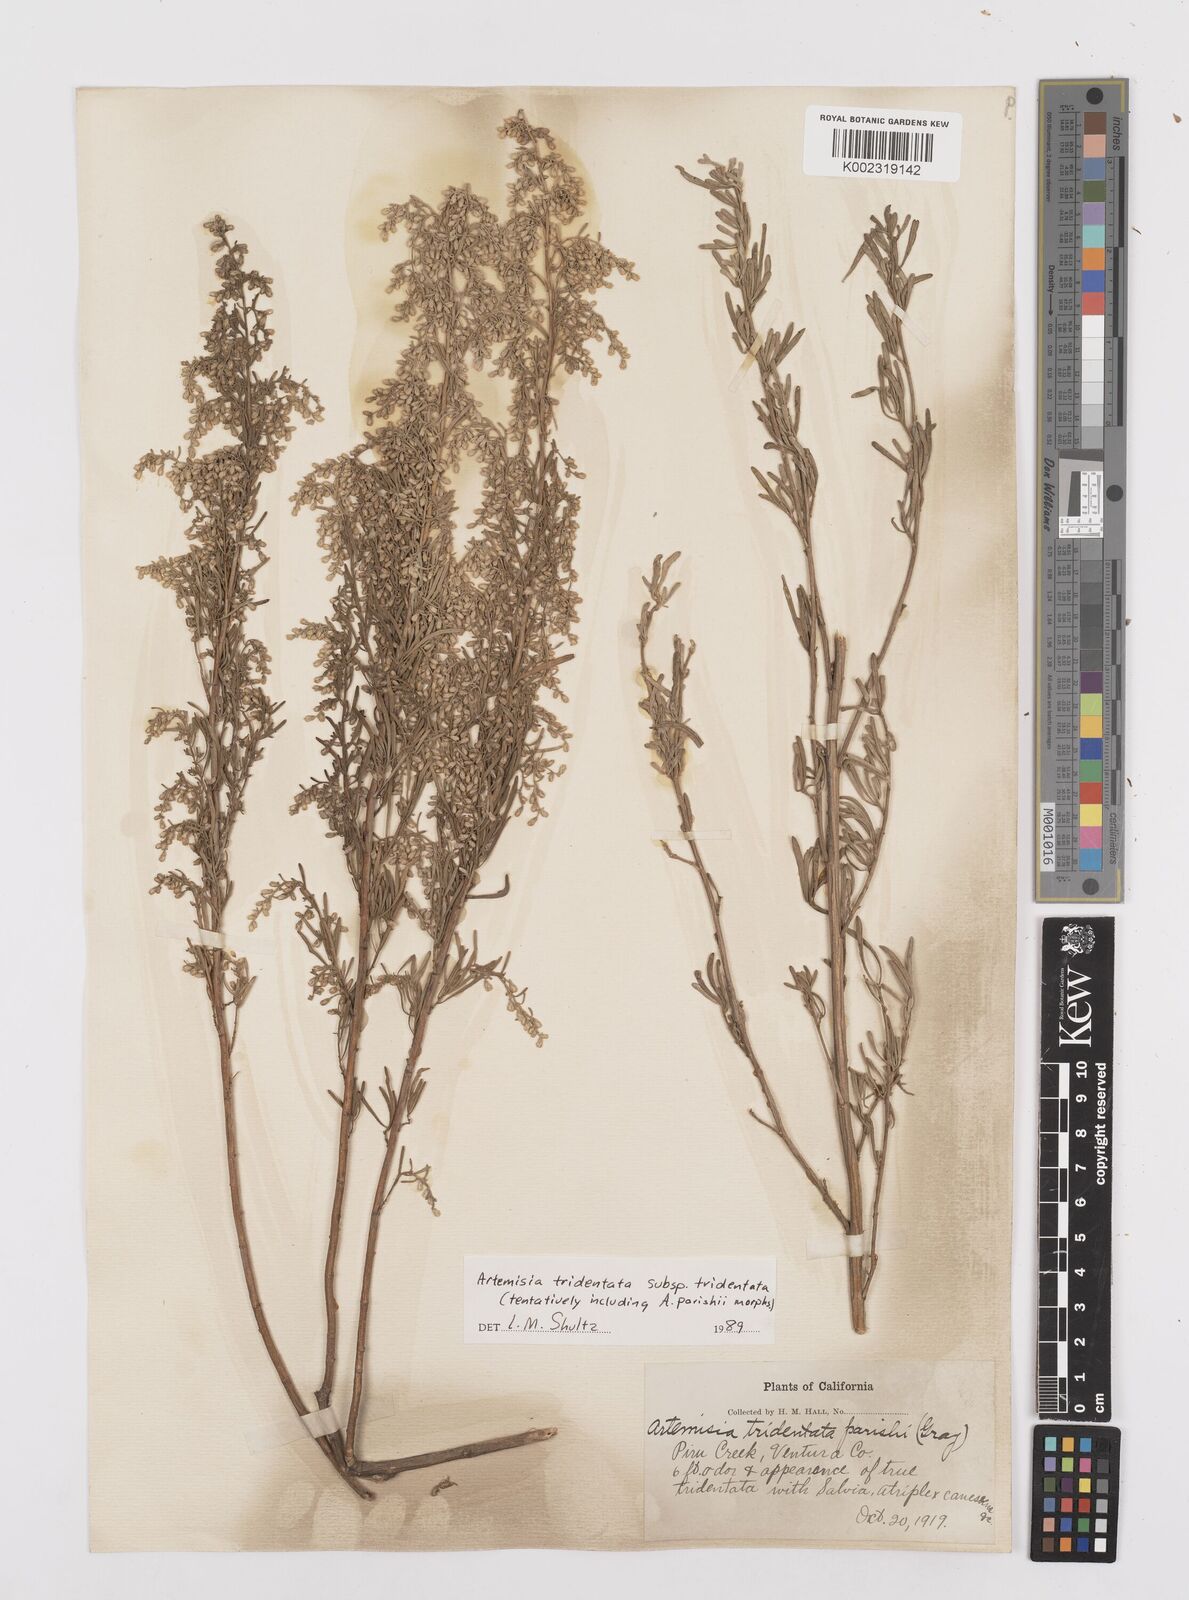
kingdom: Plantae
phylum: Tracheophyta
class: Magnoliopsida
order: Asterales
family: Asteraceae
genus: Artemisia
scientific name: Artemisia tridentata
